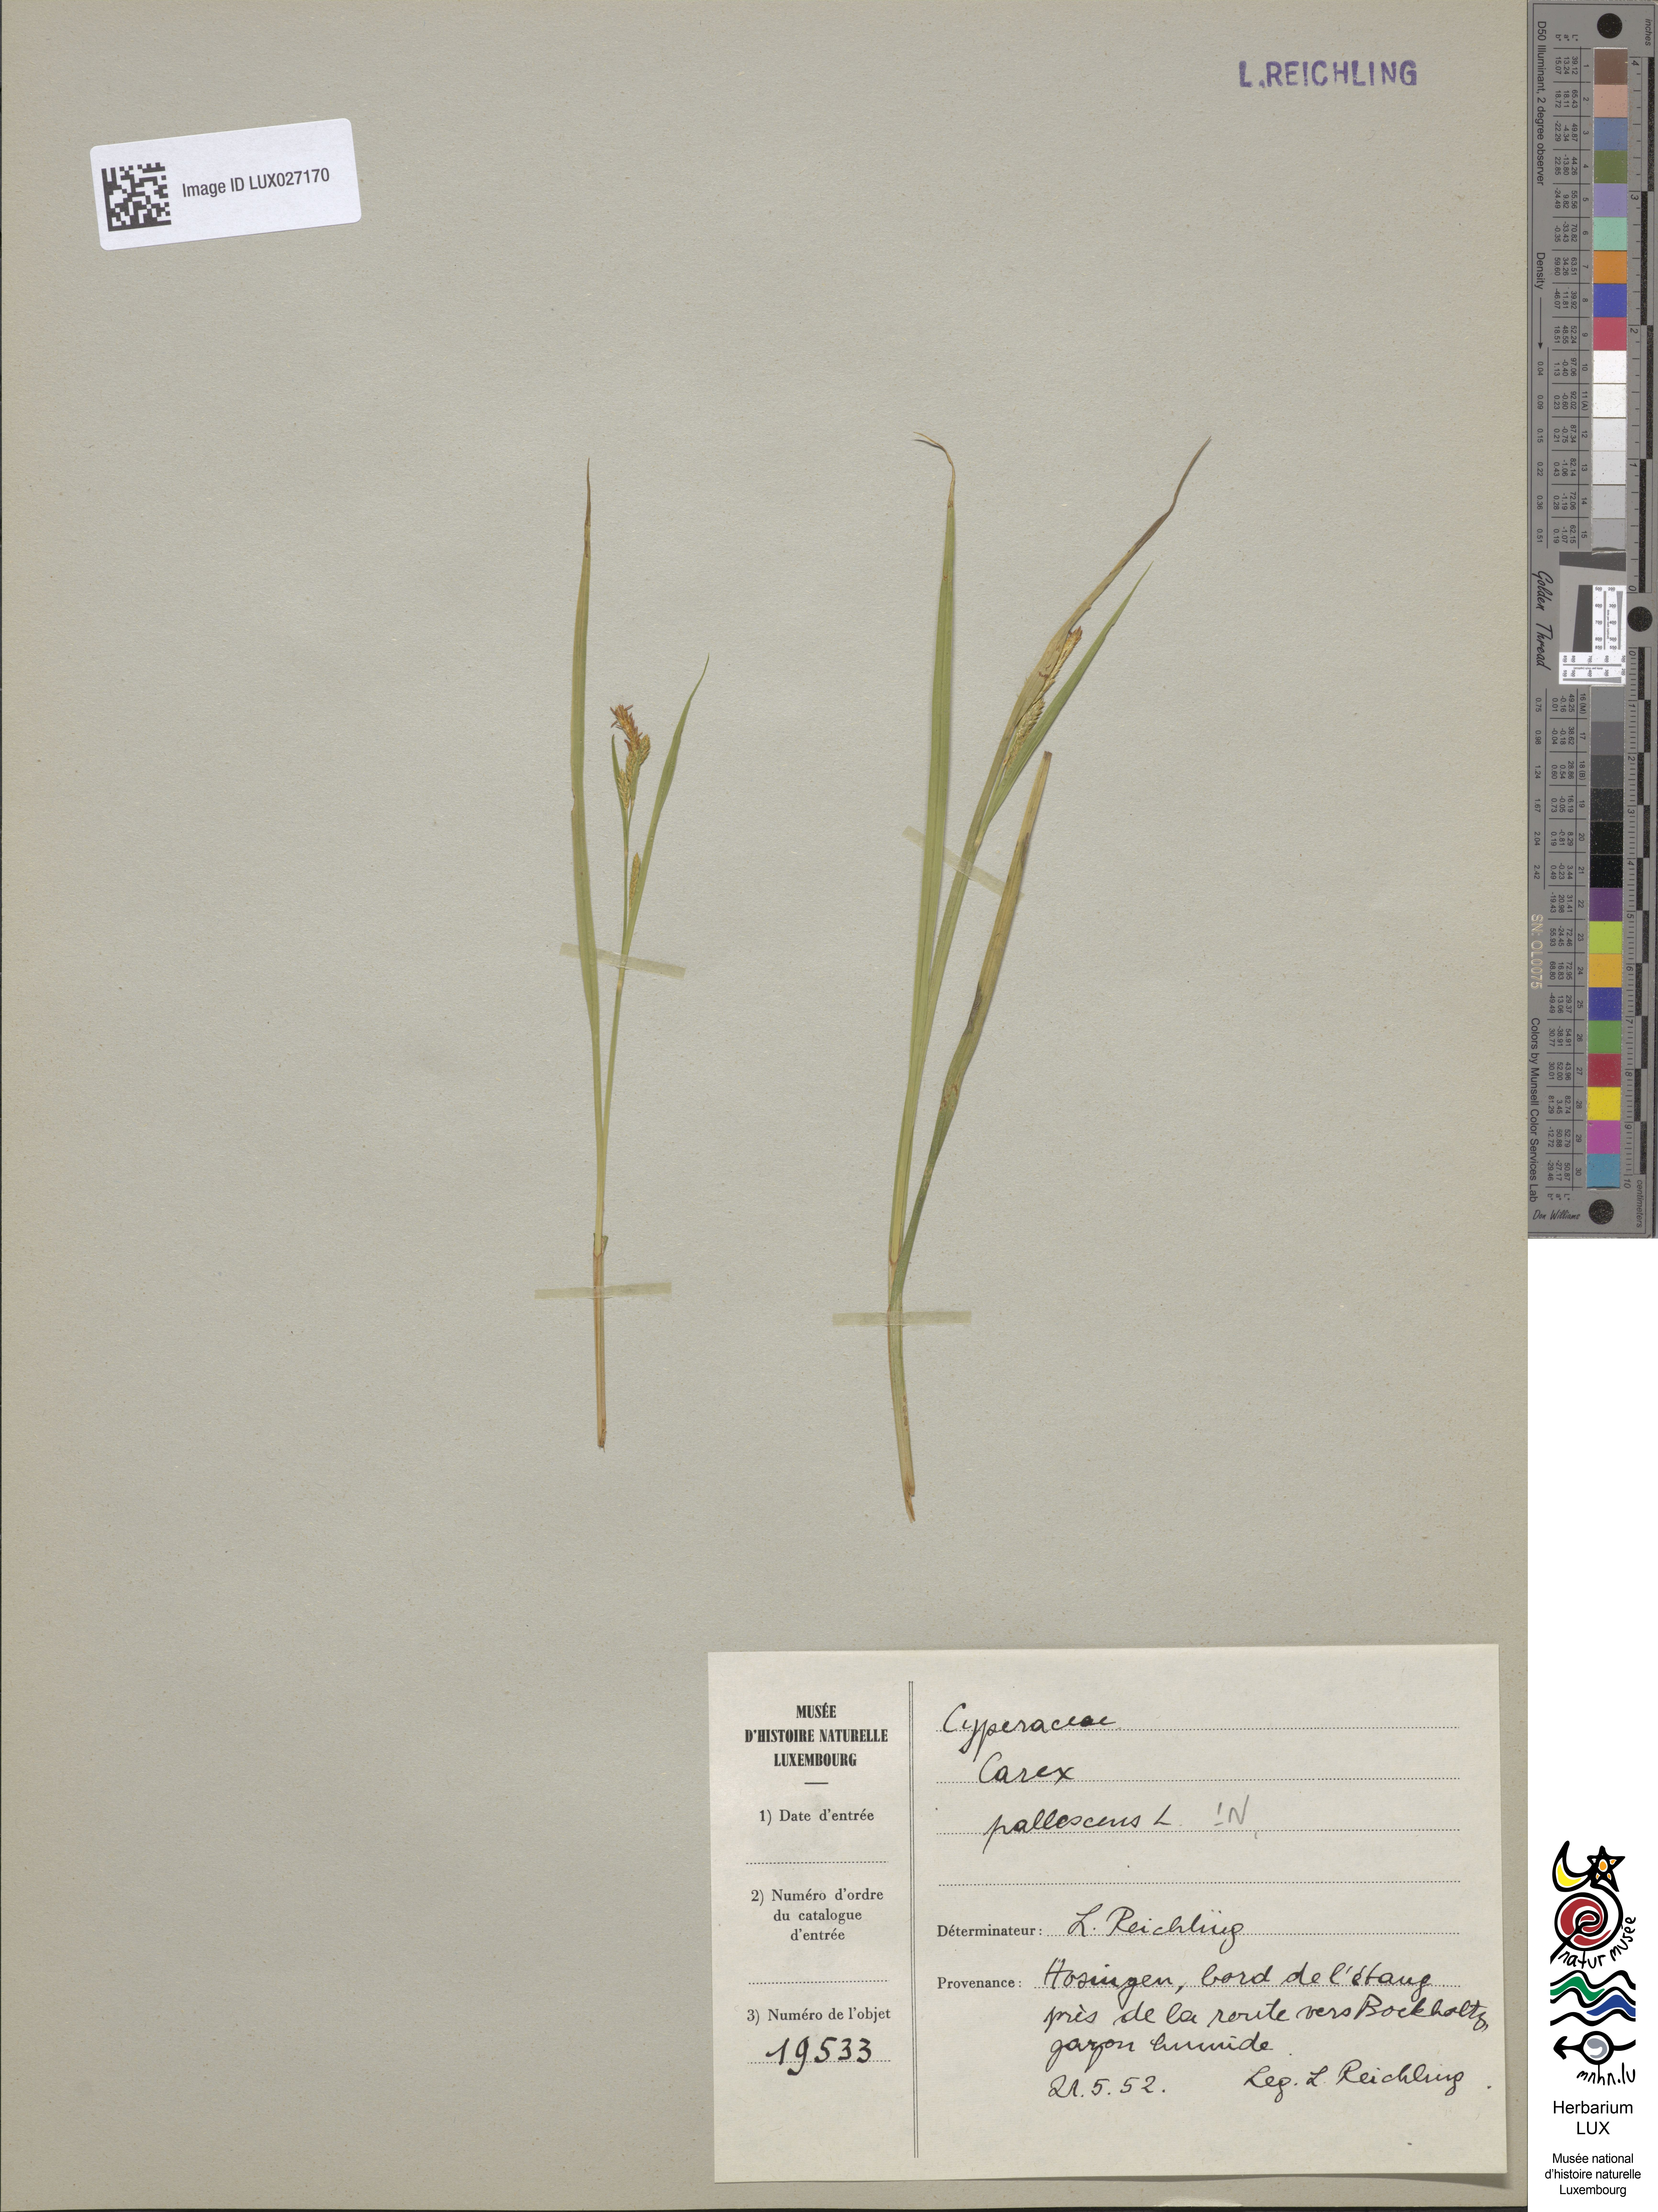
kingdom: Plantae
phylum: Tracheophyta
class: Liliopsida
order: Poales
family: Cyperaceae
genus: Carex
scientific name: Carex pallescens
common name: Pale sedge
